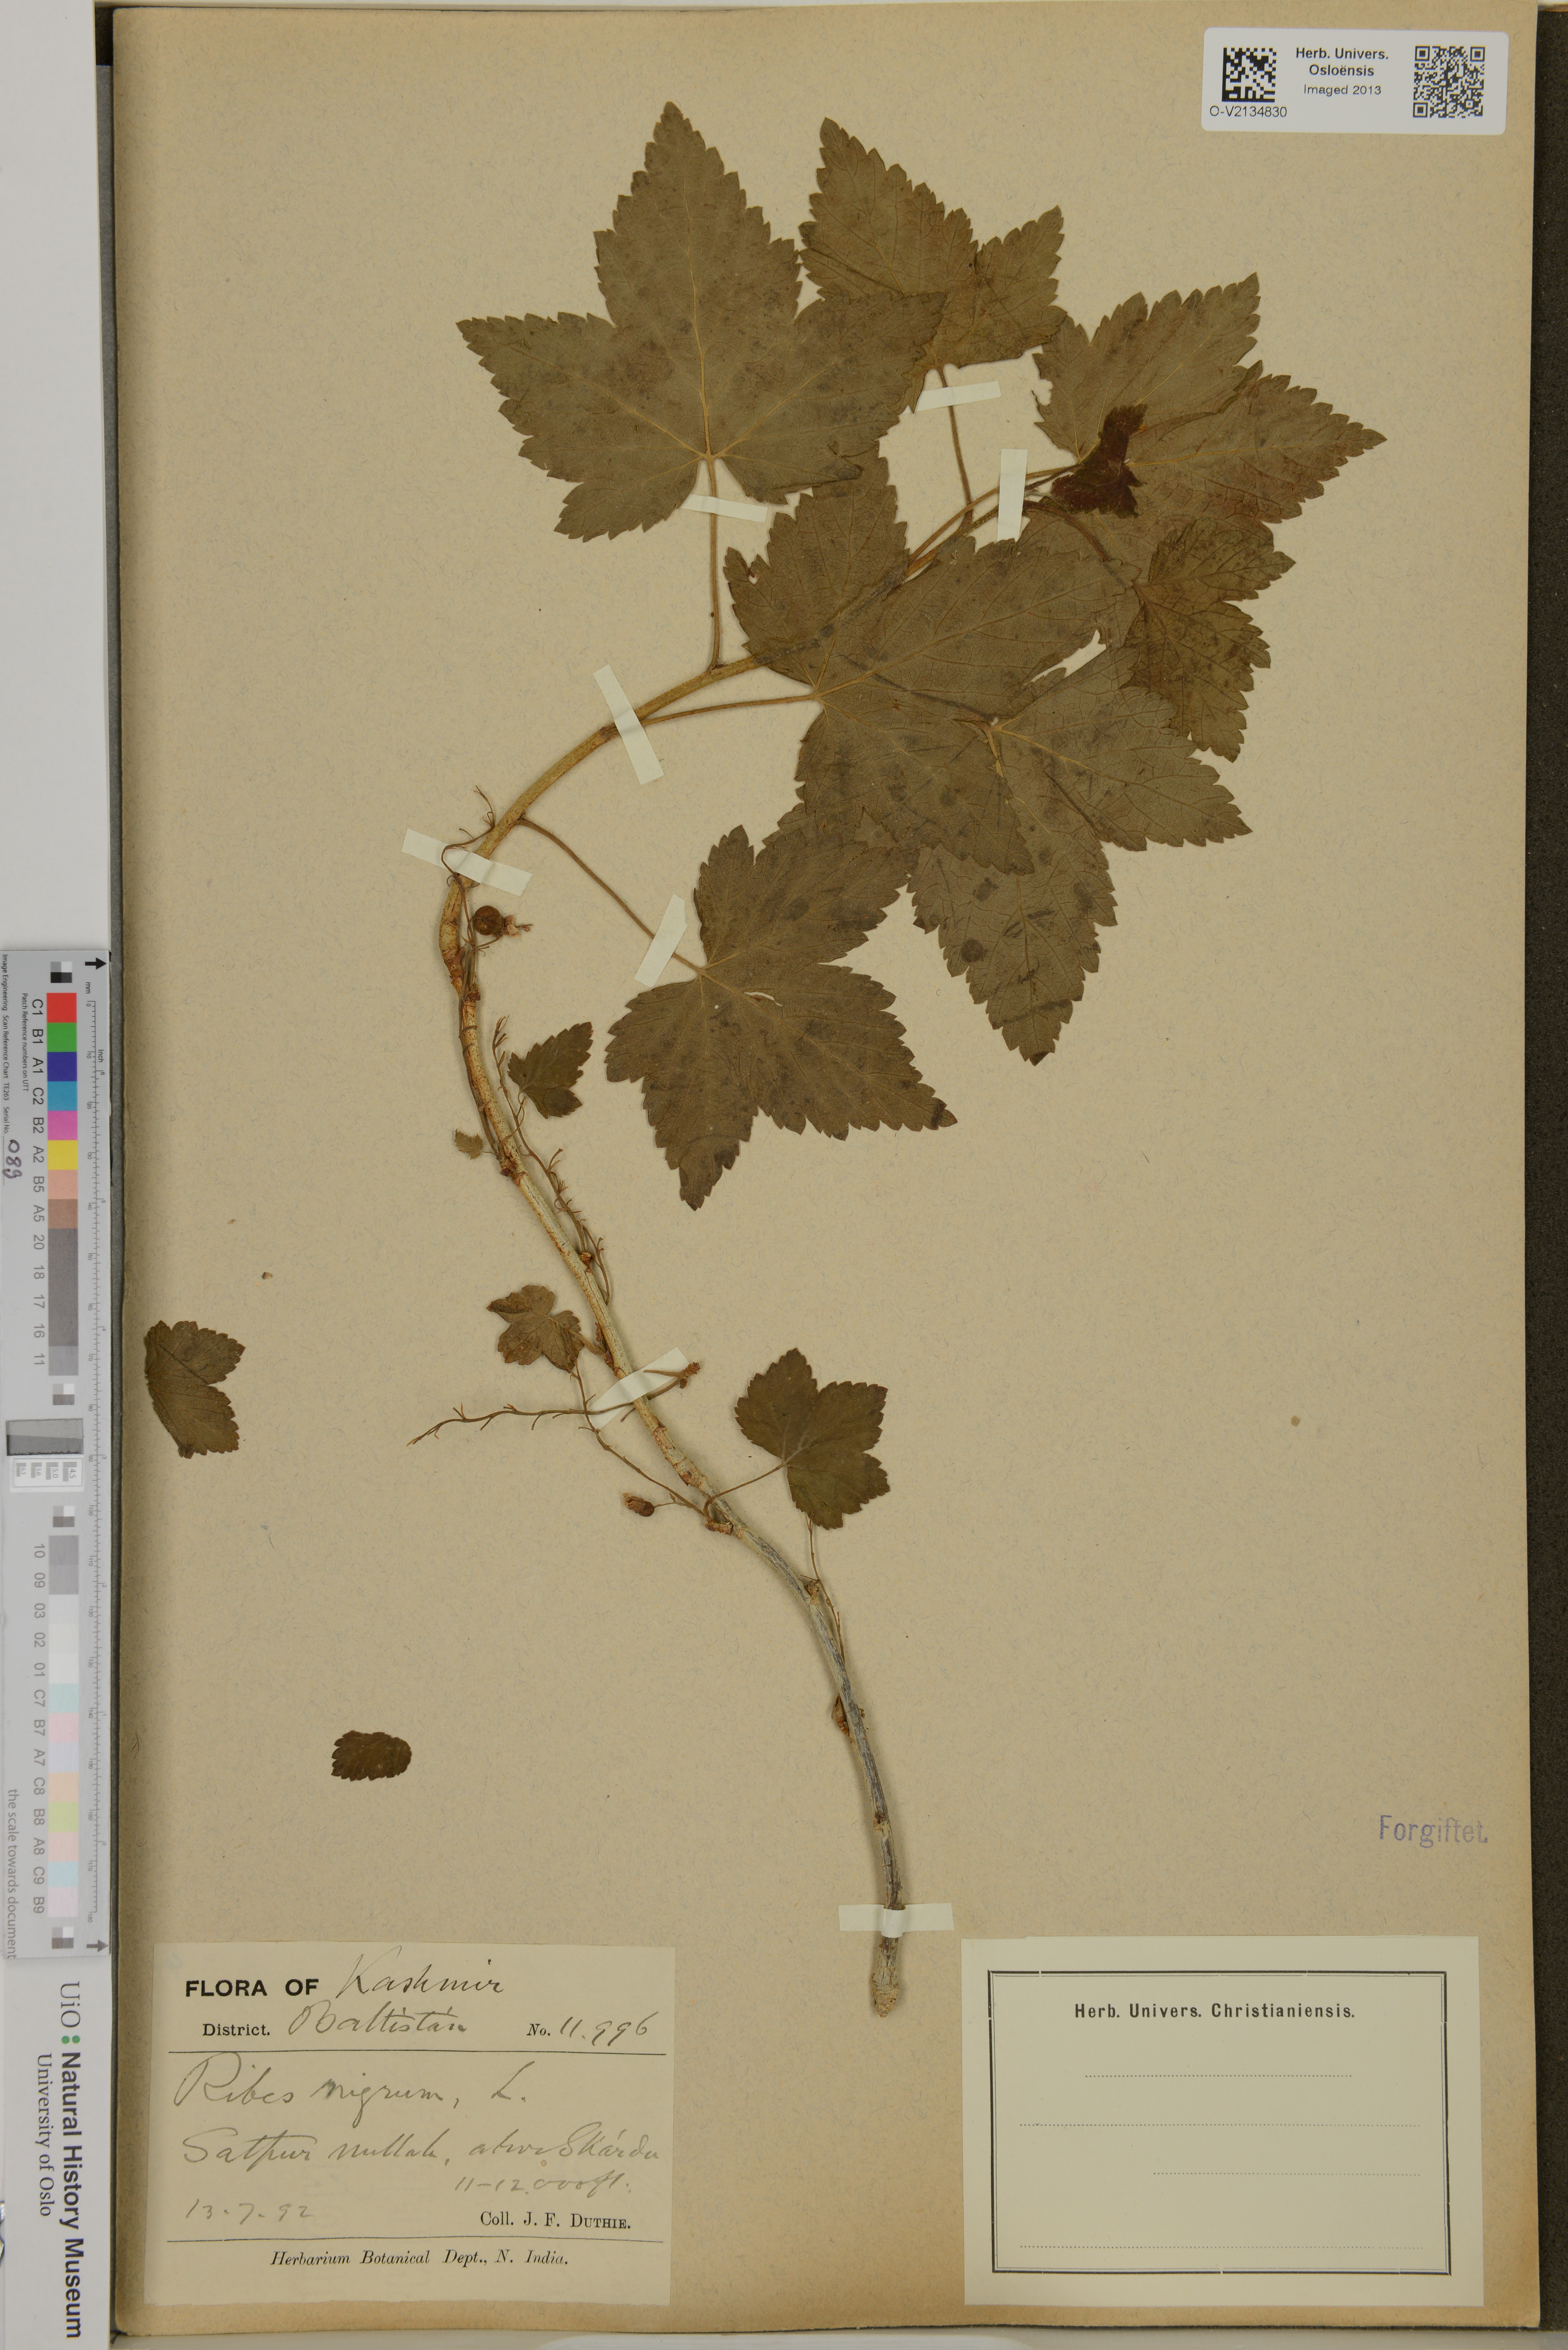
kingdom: Plantae
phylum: Tracheophyta
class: Magnoliopsida
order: Saxifragales
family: Grossulariaceae
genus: Ribes
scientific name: Ribes nigrum
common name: Black currant
